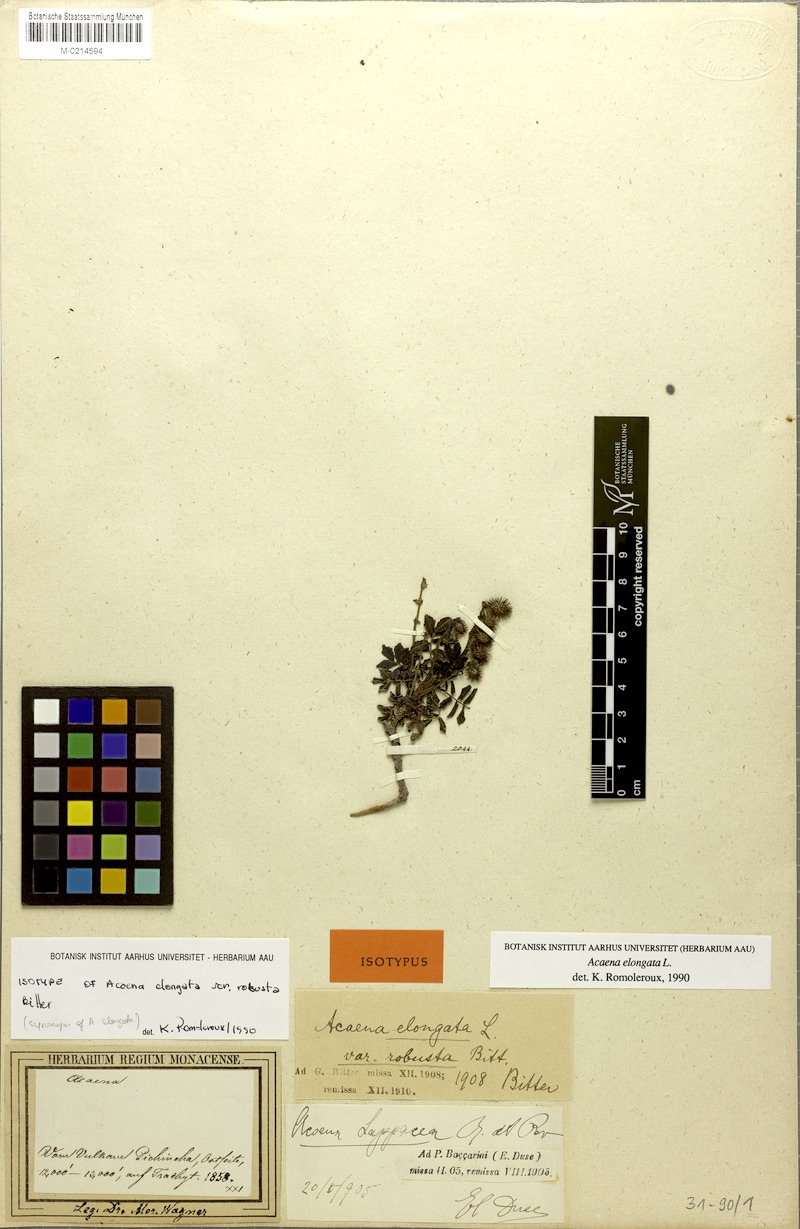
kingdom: Plantae
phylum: Tracheophyta
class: Magnoliopsida
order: Rosales
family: Rosaceae
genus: Acaena
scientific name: Acaena elongata
